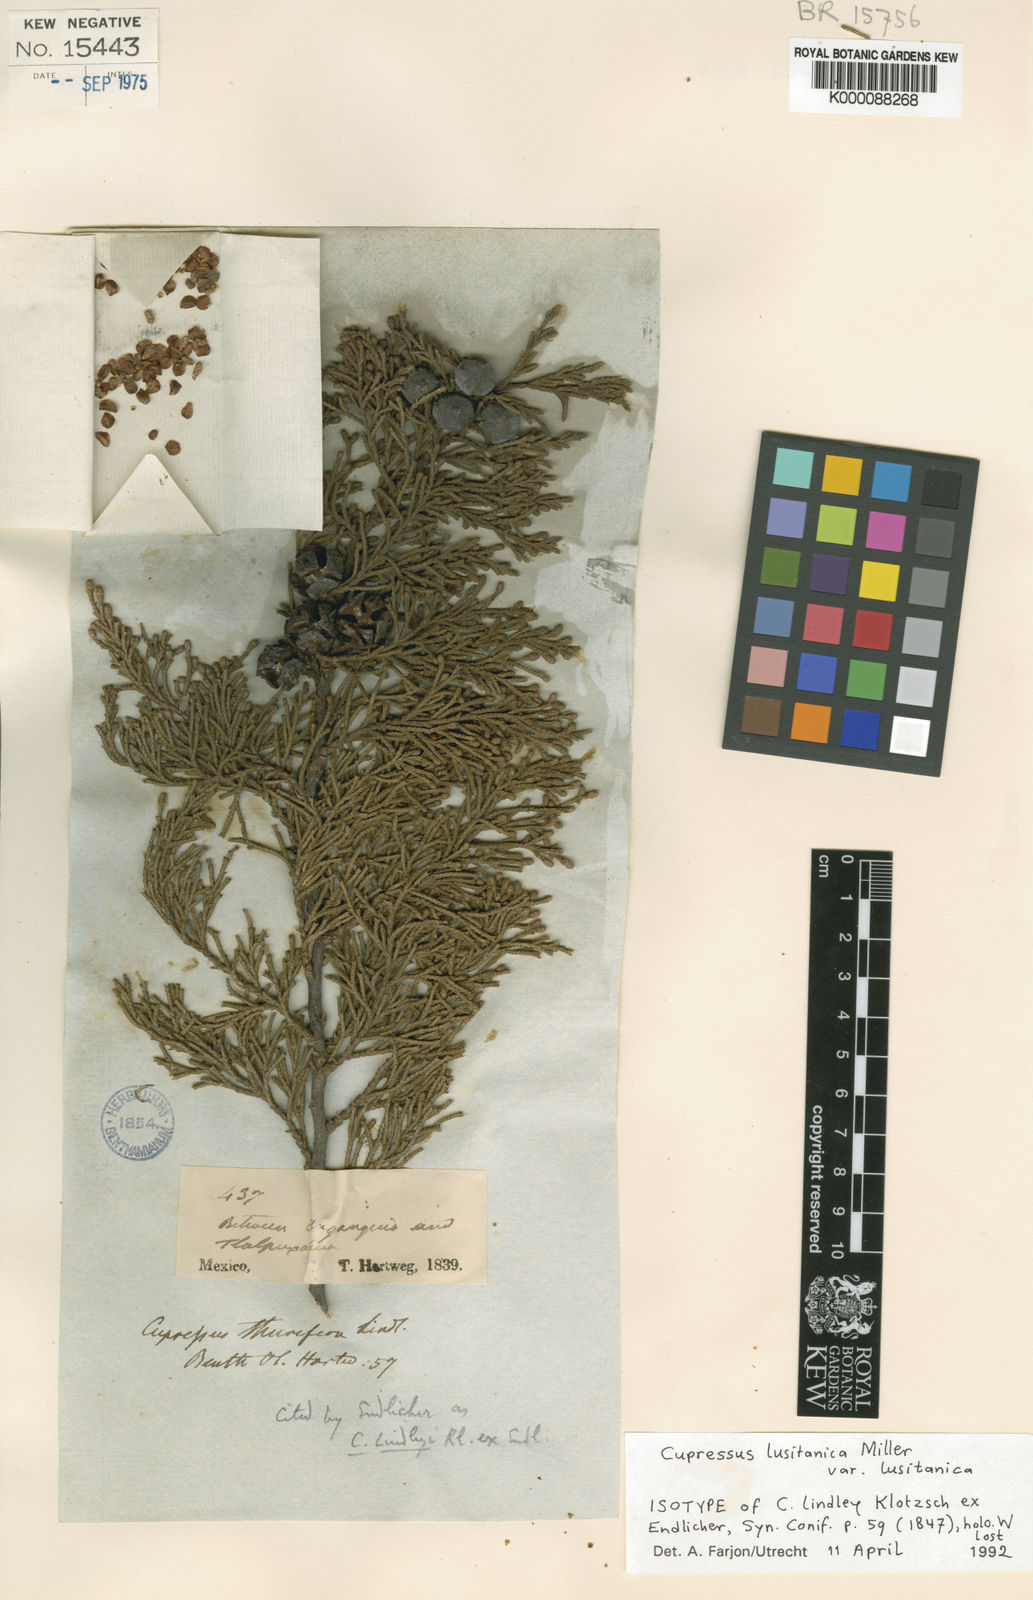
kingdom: Plantae
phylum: Tracheophyta
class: Pinopsida
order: Pinales
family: Cupressaceae
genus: Cupressus
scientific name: Cupressus lusitanica
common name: Mexican cypress
